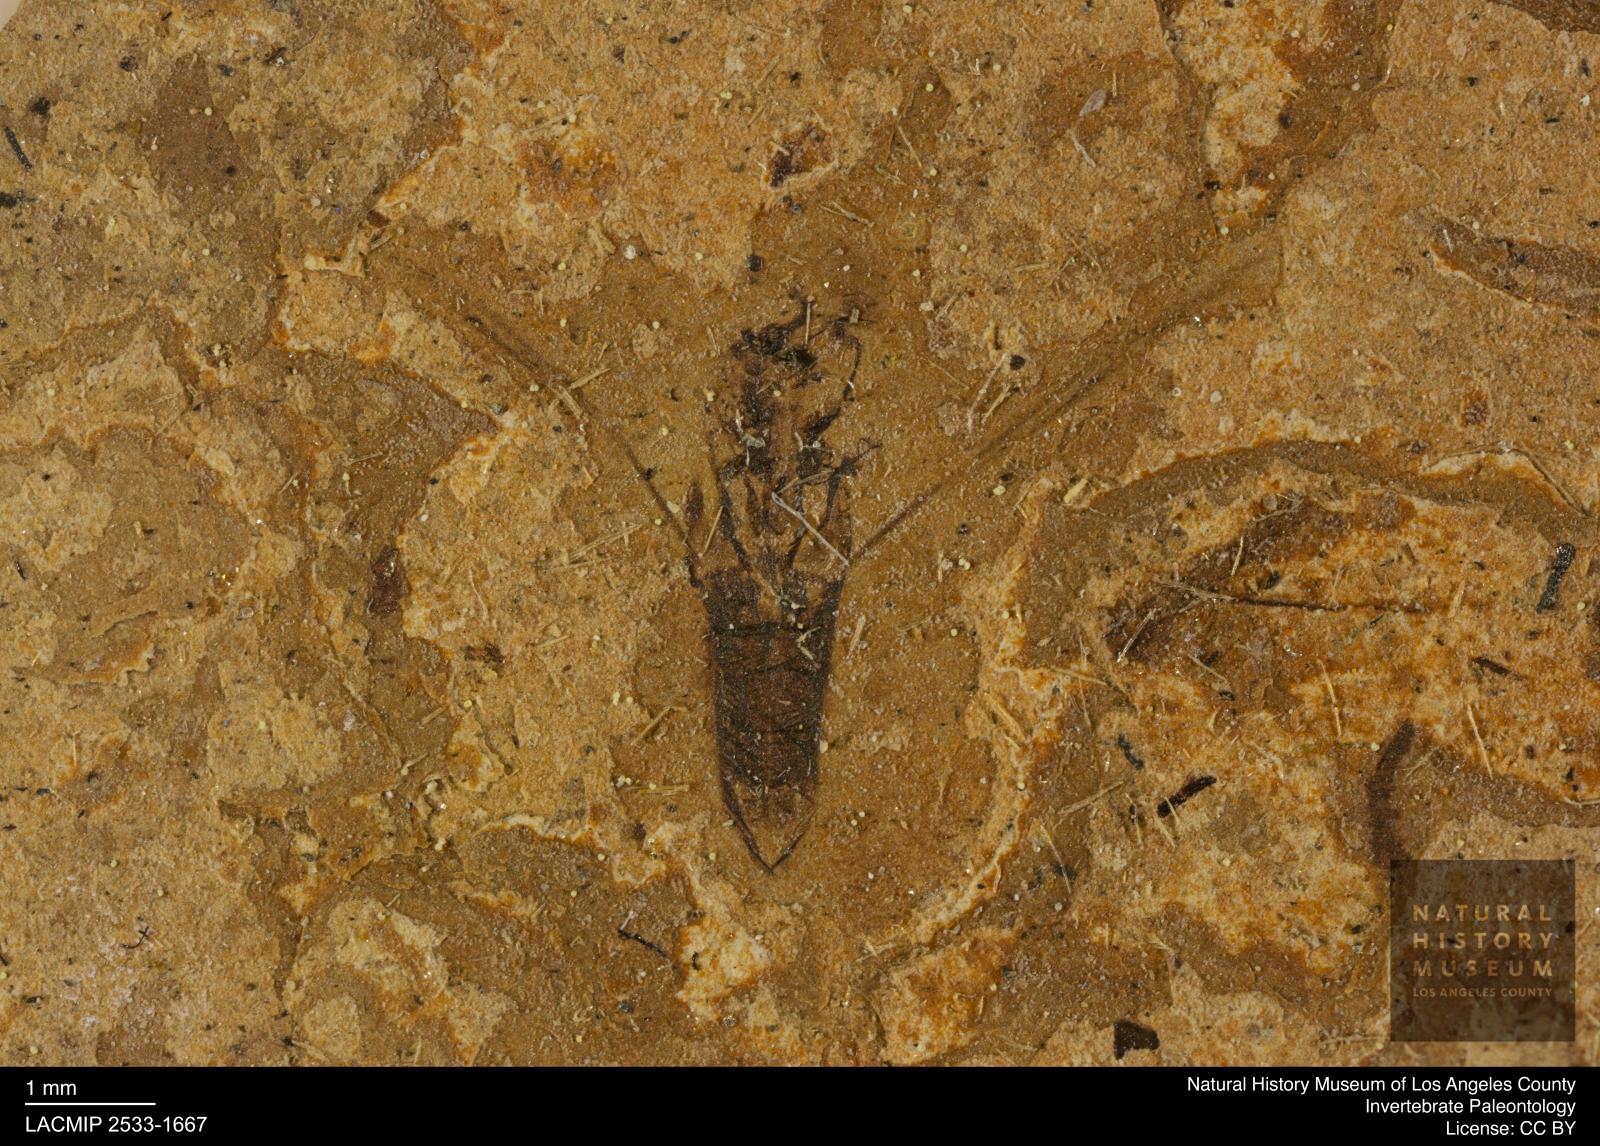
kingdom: Animalia
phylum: Arthropoda
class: Insecta
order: Hemiptera
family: Notonectidae
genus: Notonecta
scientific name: Notonecta
